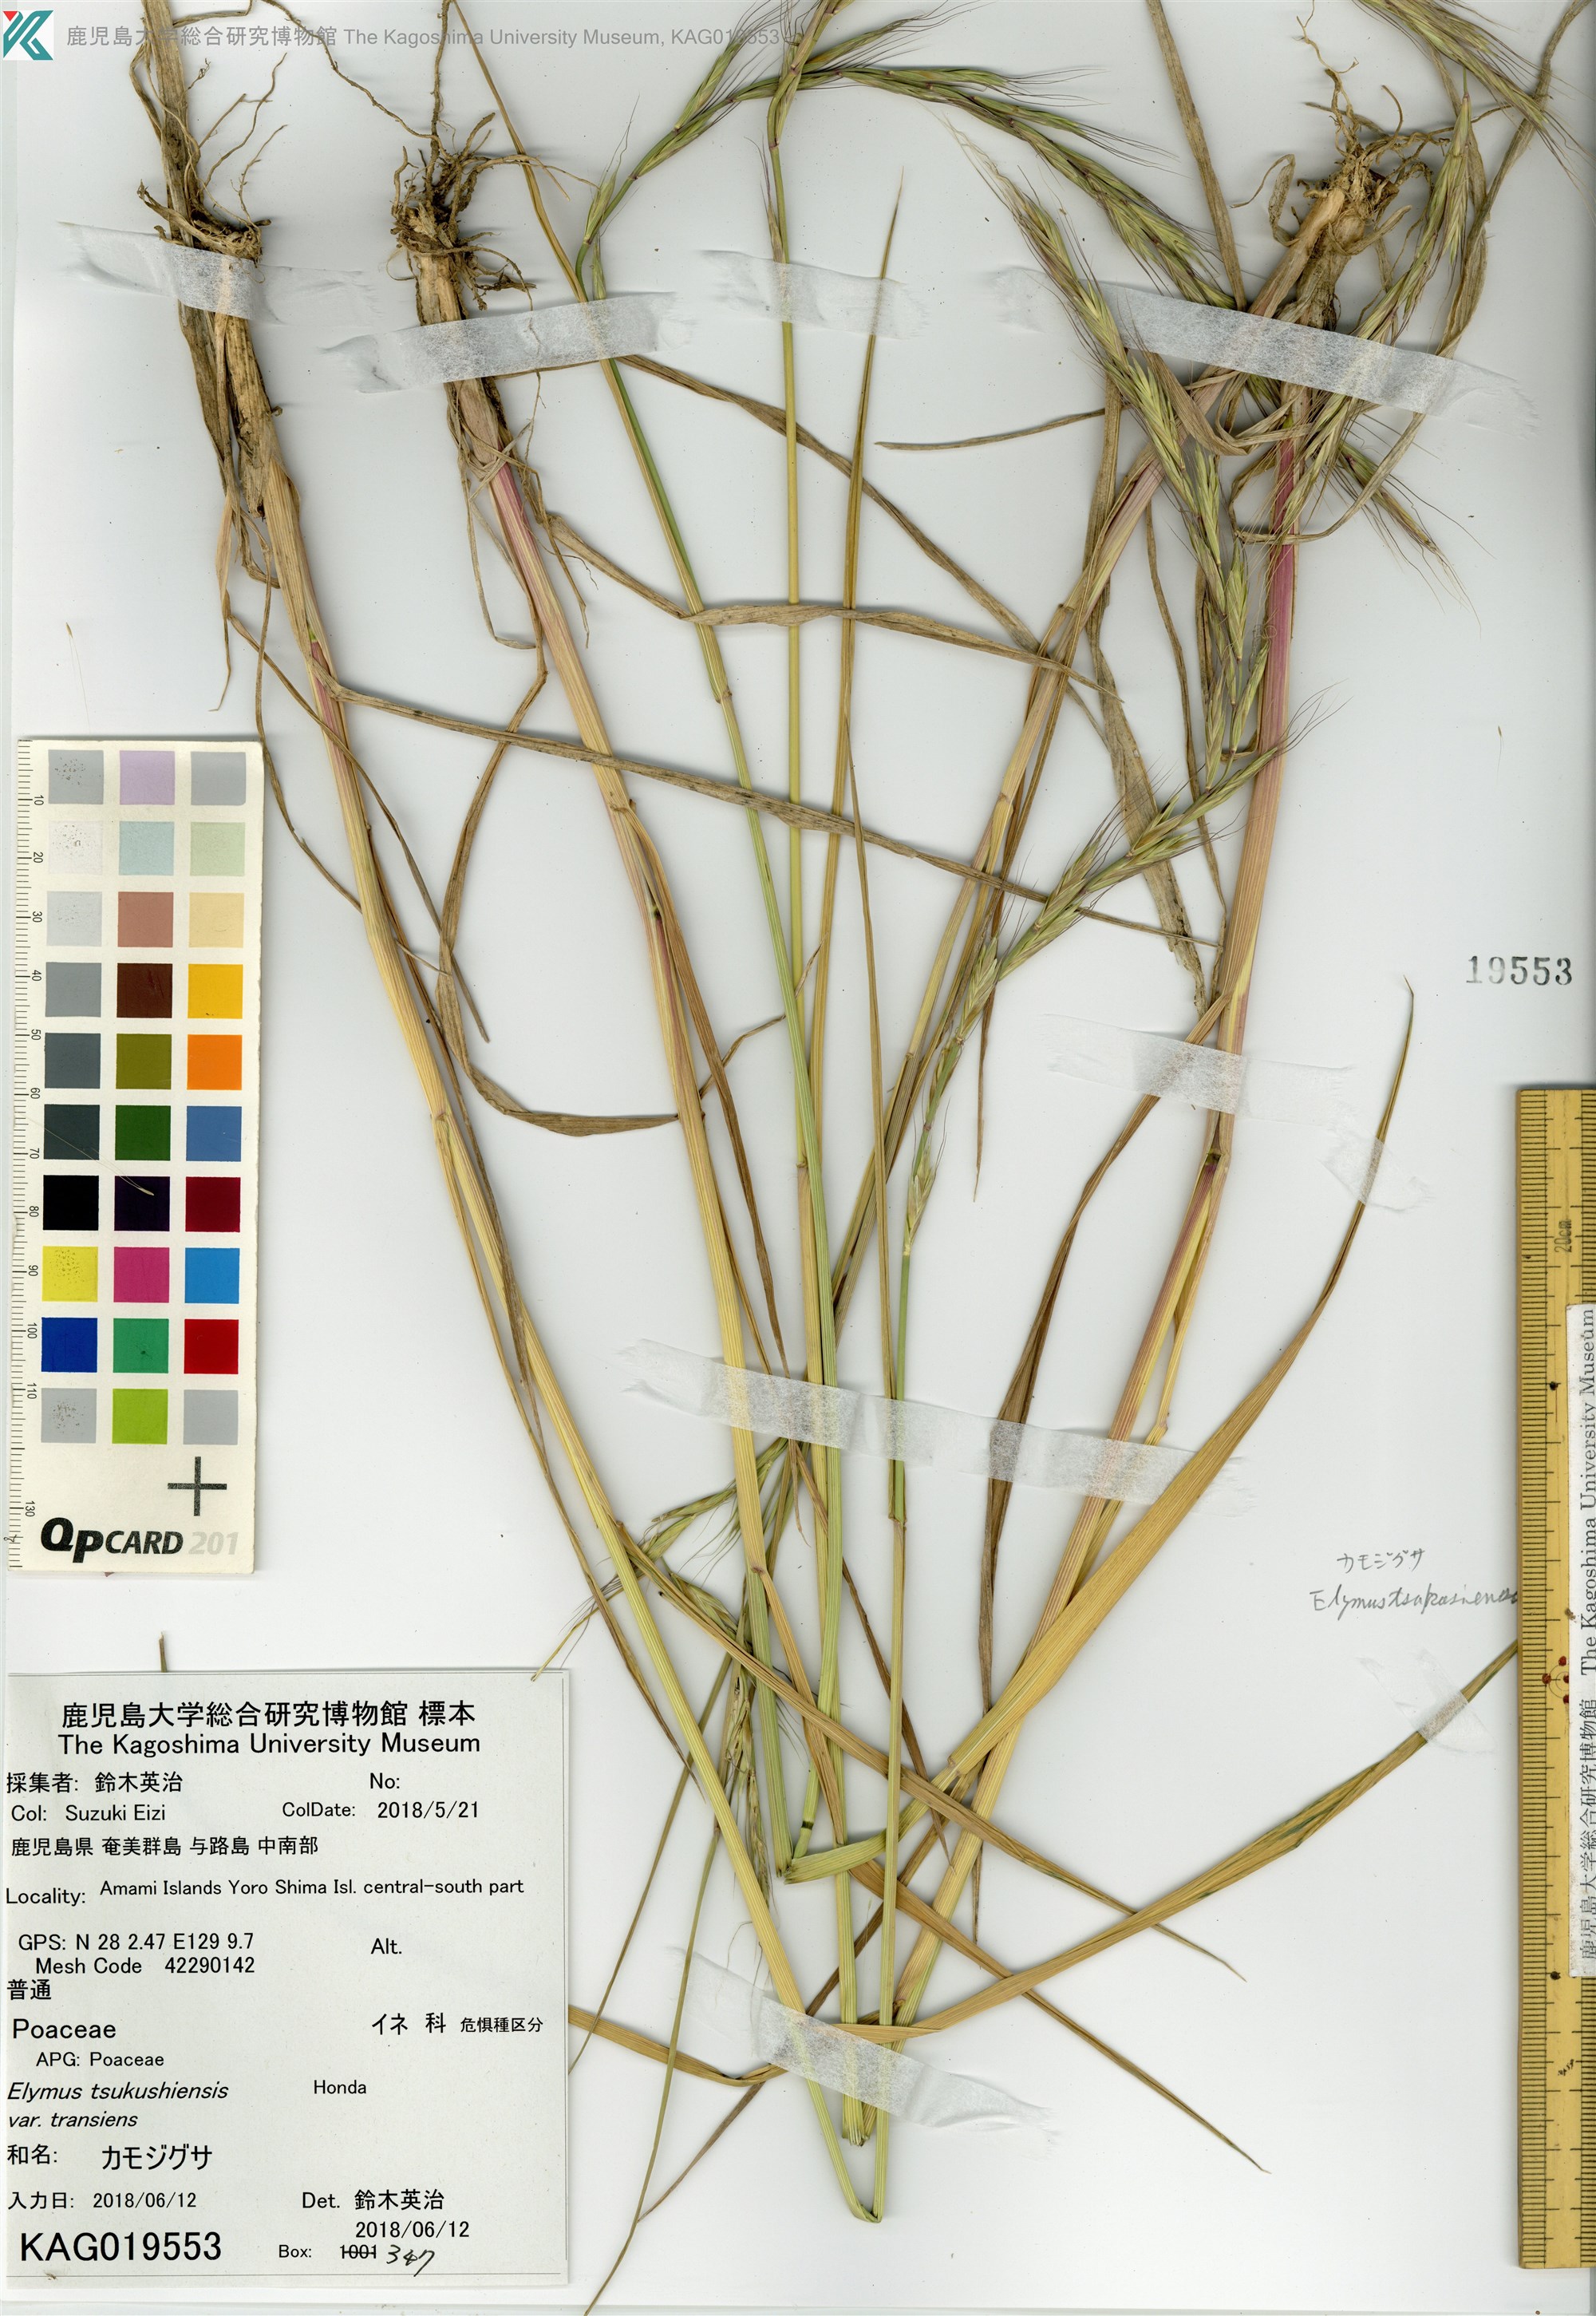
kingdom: Plantae
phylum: Tracheophyta
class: Liliopsida
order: Poales
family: Poaceae
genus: Elymus
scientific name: Elymus tsukushiensis
